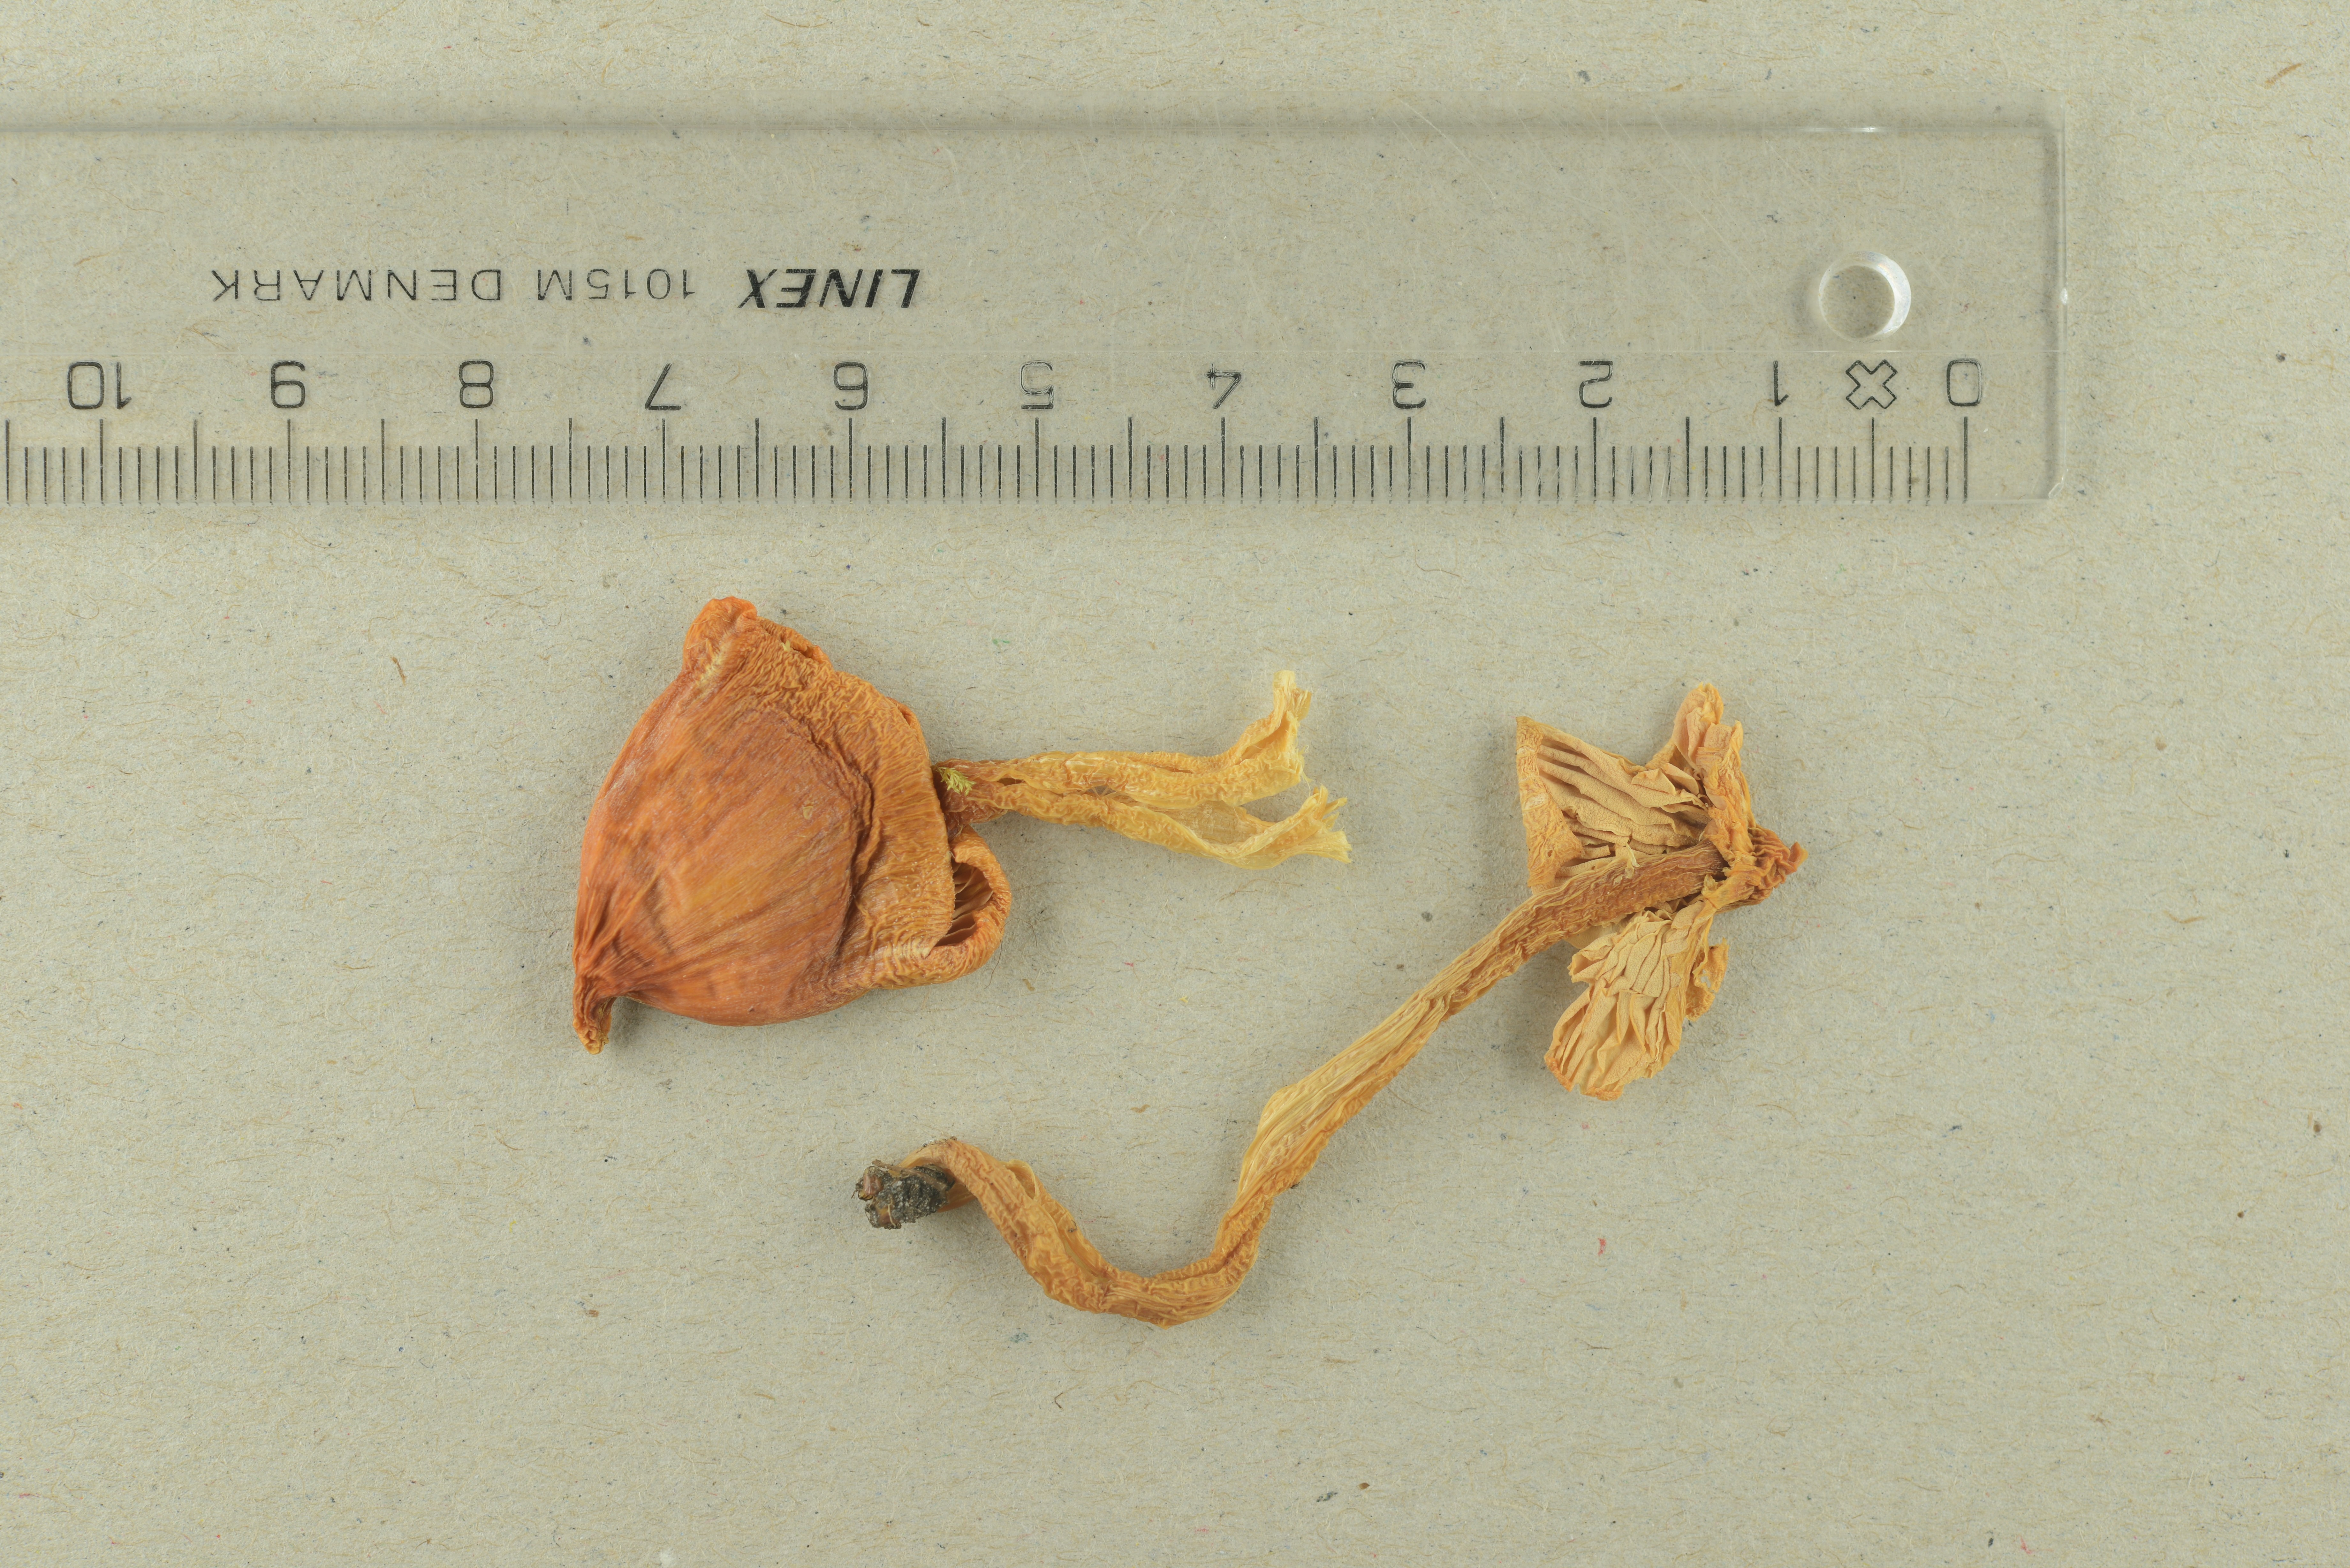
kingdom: Fungi
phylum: Basidiomycota
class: Agaricomycetes
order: Agaricales
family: Hygrophoraceae
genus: Porpolomopsis
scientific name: Porpolomopsis calyptriformis
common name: Pink waxcap
